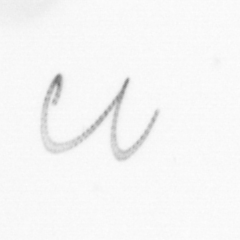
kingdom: Chromista
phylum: Ochrophyta
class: Bacillariophyceae
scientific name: Bacillariophyceae
